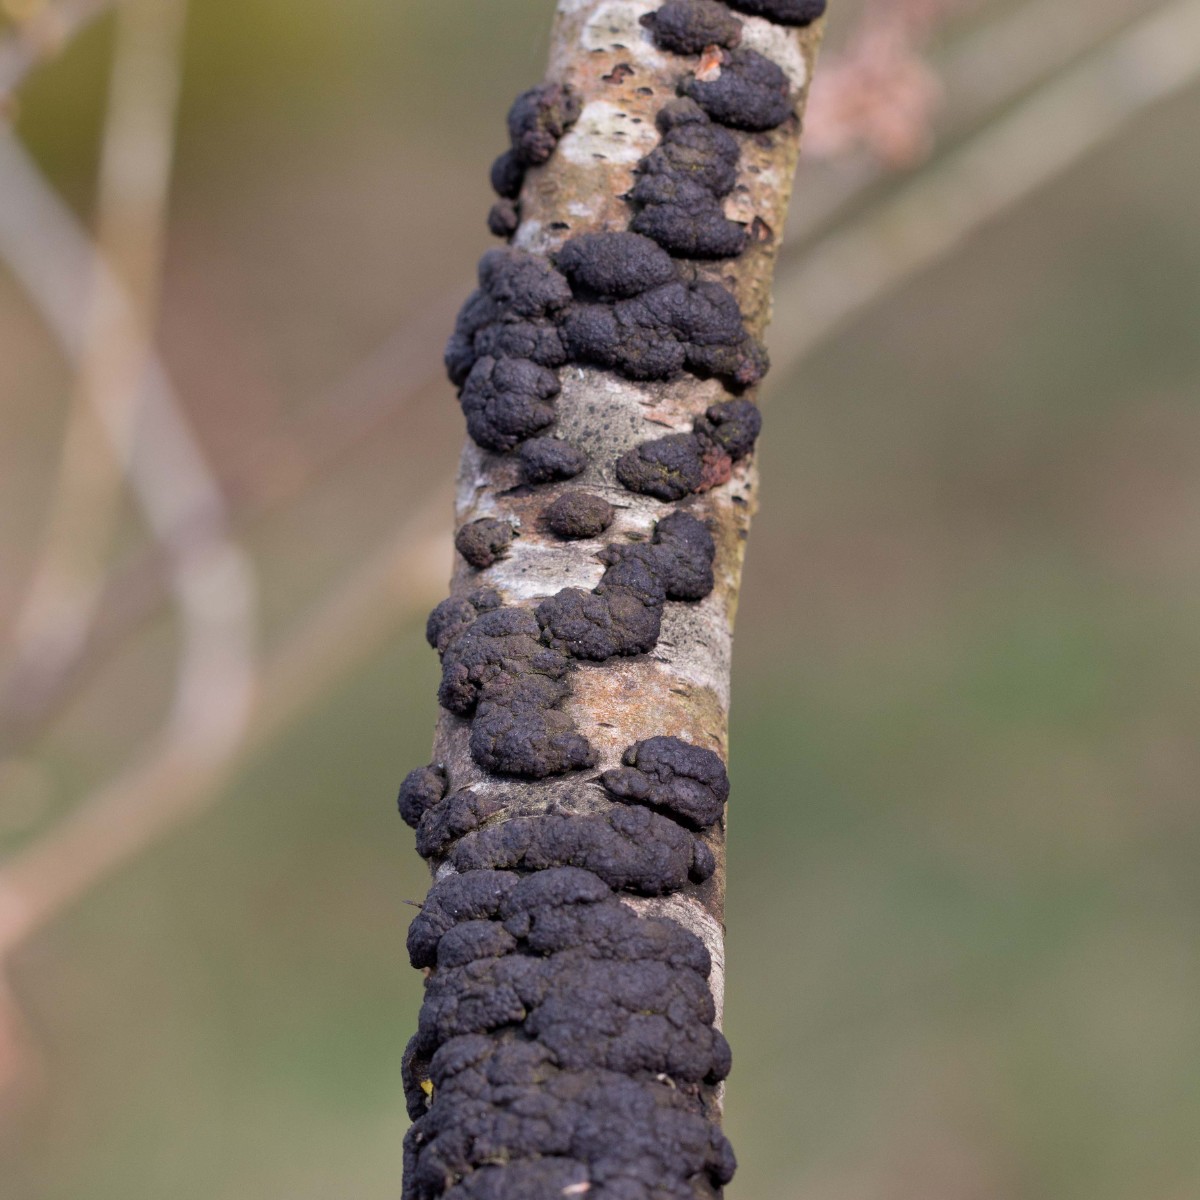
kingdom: Fungi
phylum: Ascomycota
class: Sordariomycetes
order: Xylariales
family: Hypoxylaceae
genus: Jackrogersella
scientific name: Jackrogersella multiformis
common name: foranderlig kulbær
